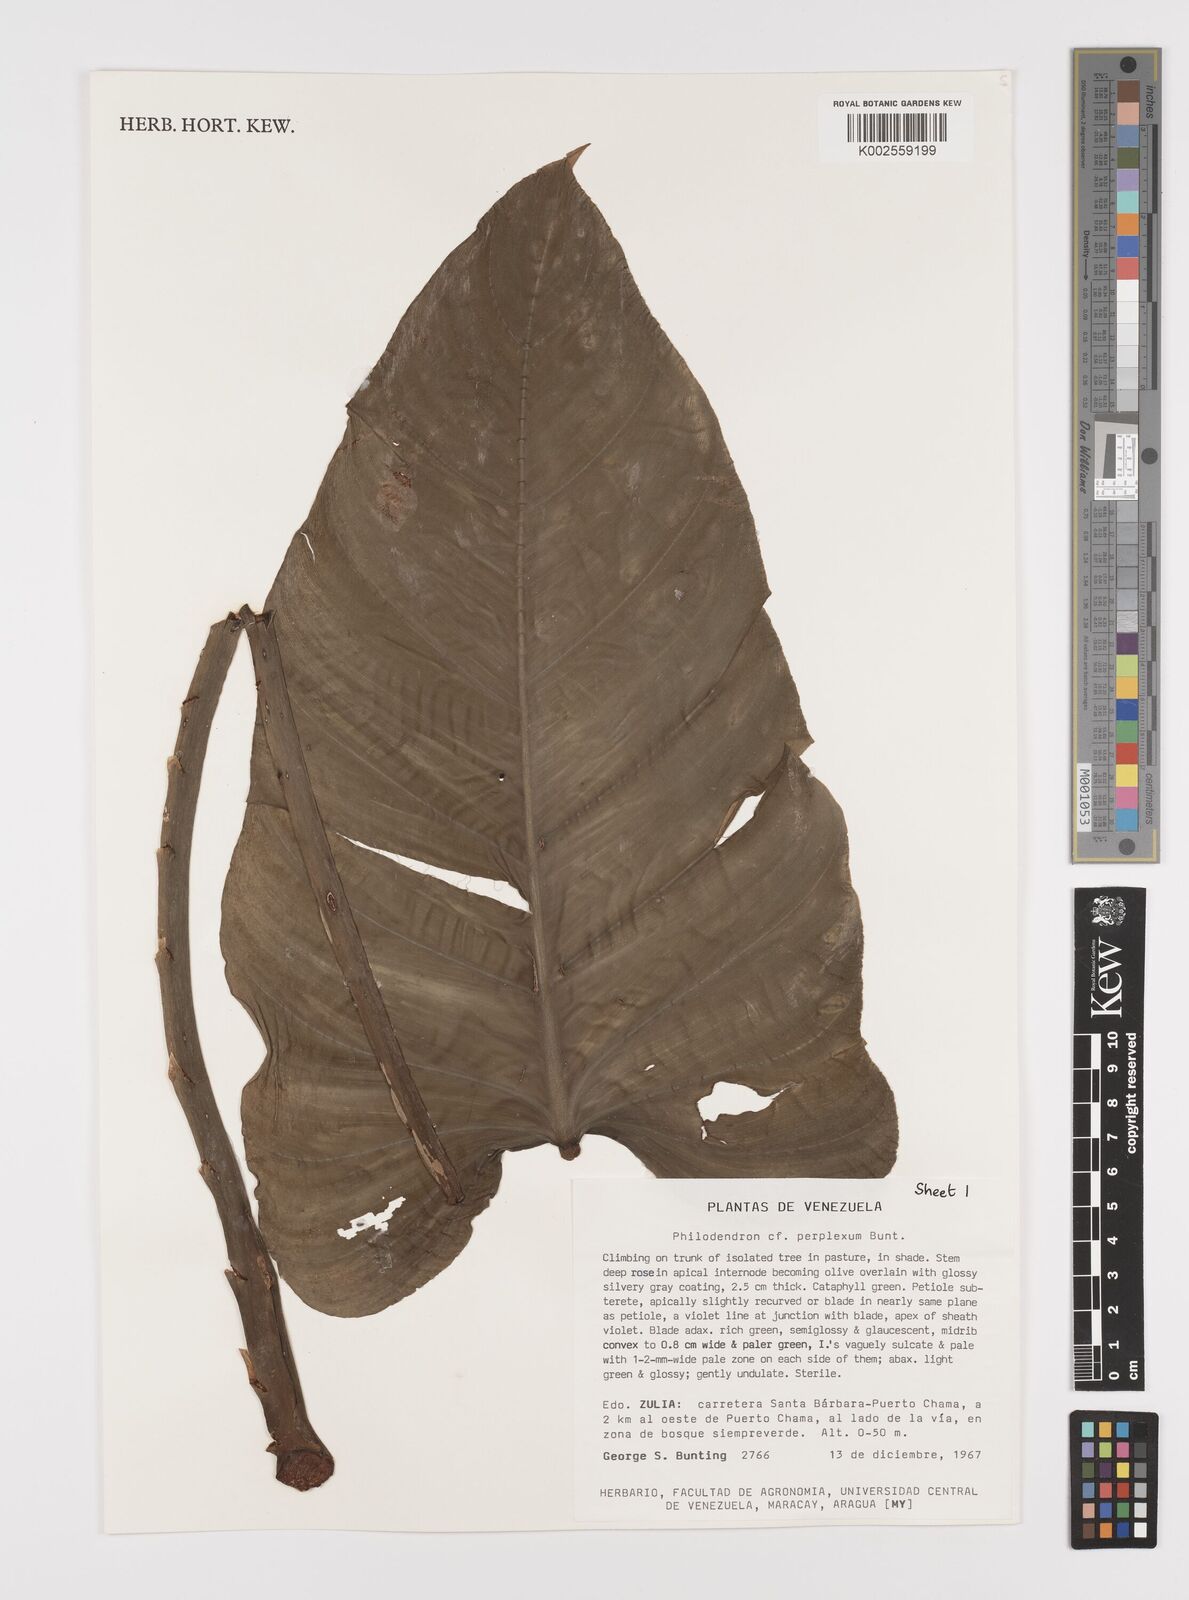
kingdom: Plantae
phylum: Tracheophyta
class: Liliopsida
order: Alismatales
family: Araceae
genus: Philodendron
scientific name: Philodendron perplexum
